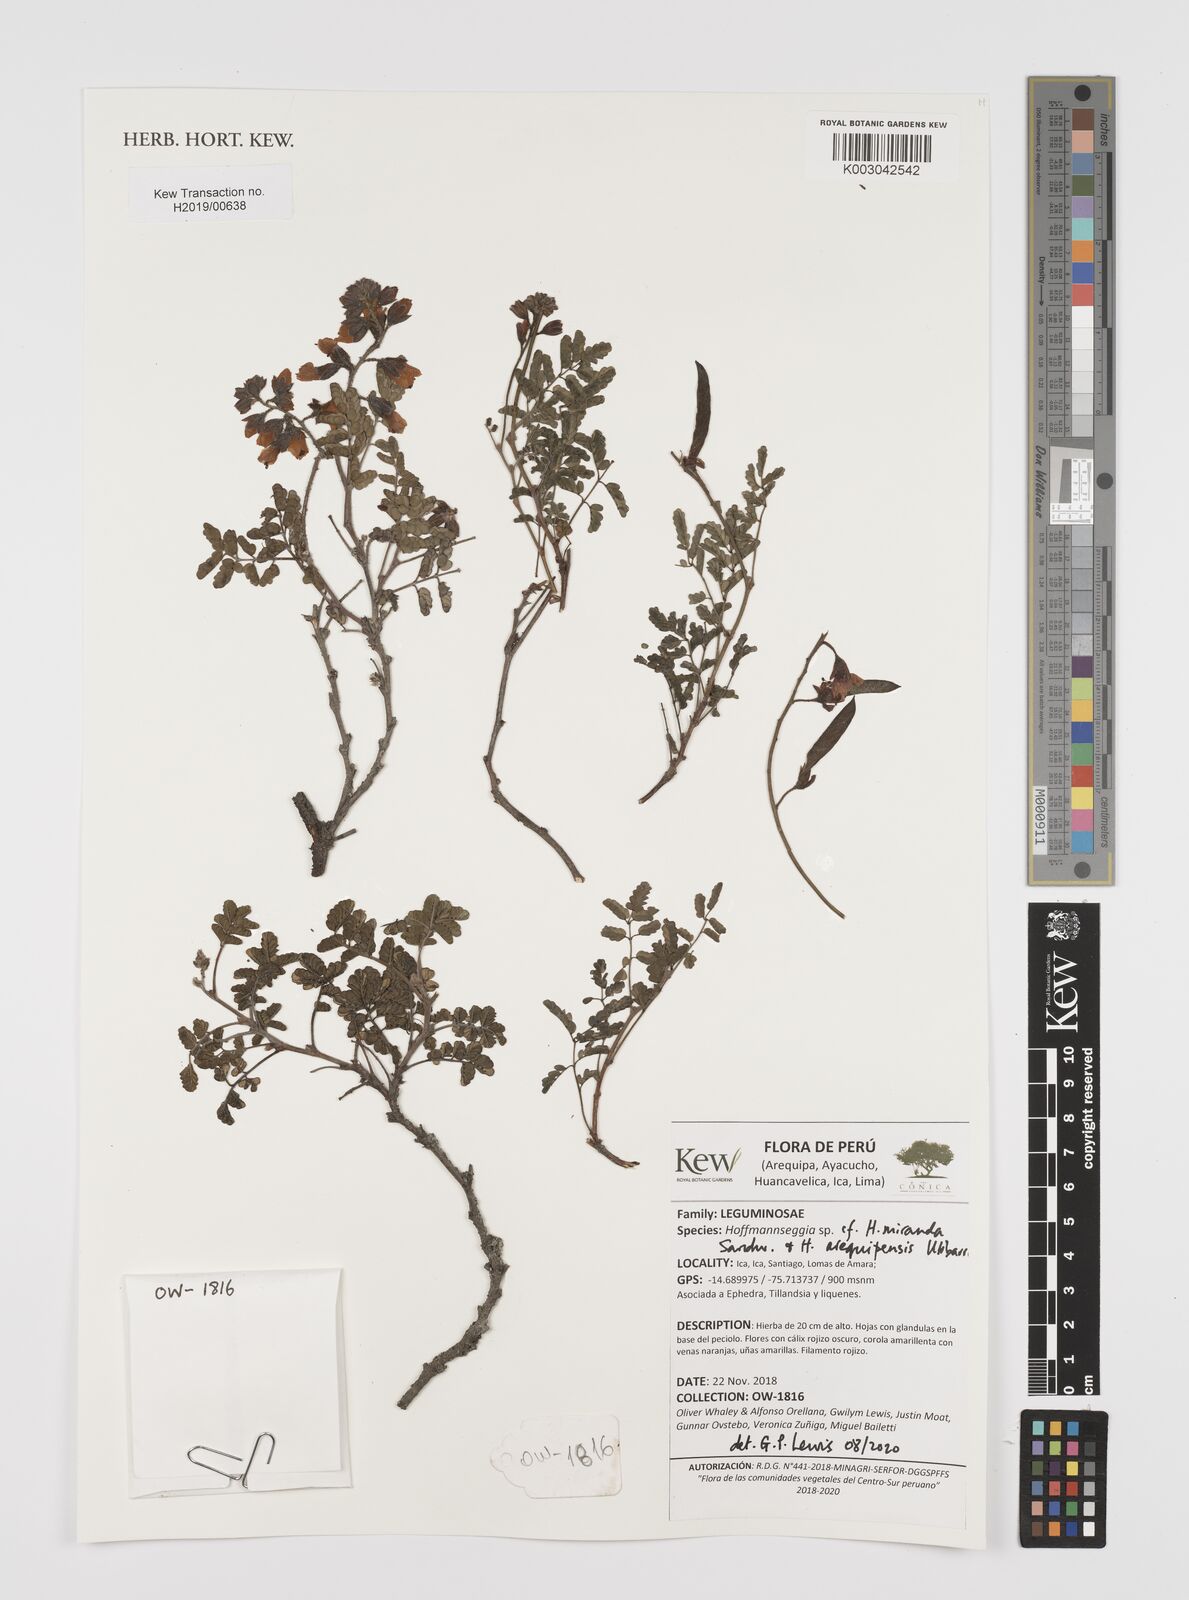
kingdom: Plantae
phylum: Tracheophyta
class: Magnoliopsida
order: Fabales
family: Fabaceae
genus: Hoffmannseggia
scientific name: Hoffmannseggia miranda
